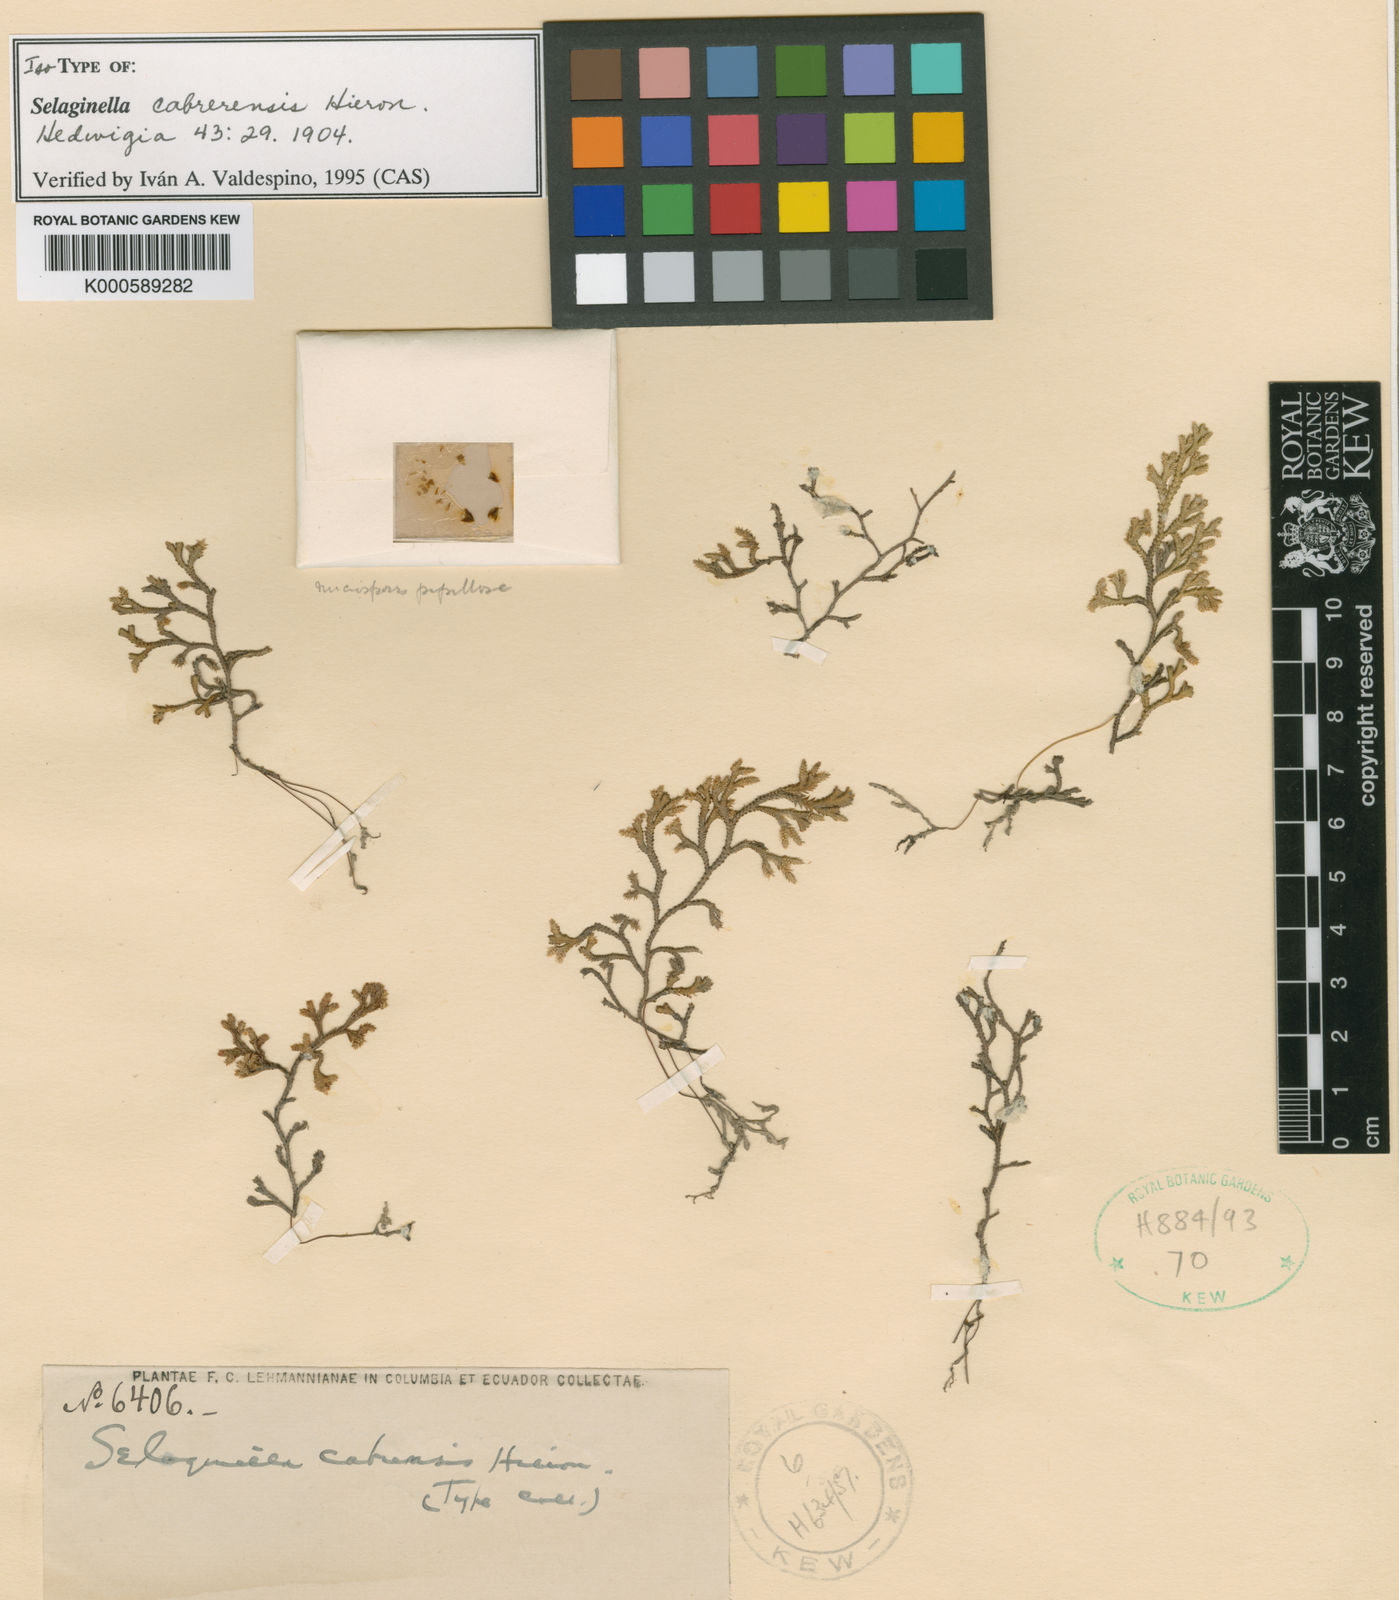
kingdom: Plantae
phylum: Tracheophyta
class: Lycopodiopsida
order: Selaginellales
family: Selaginellaceae
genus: Selaginella
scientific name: Selaginella cabrerensis
